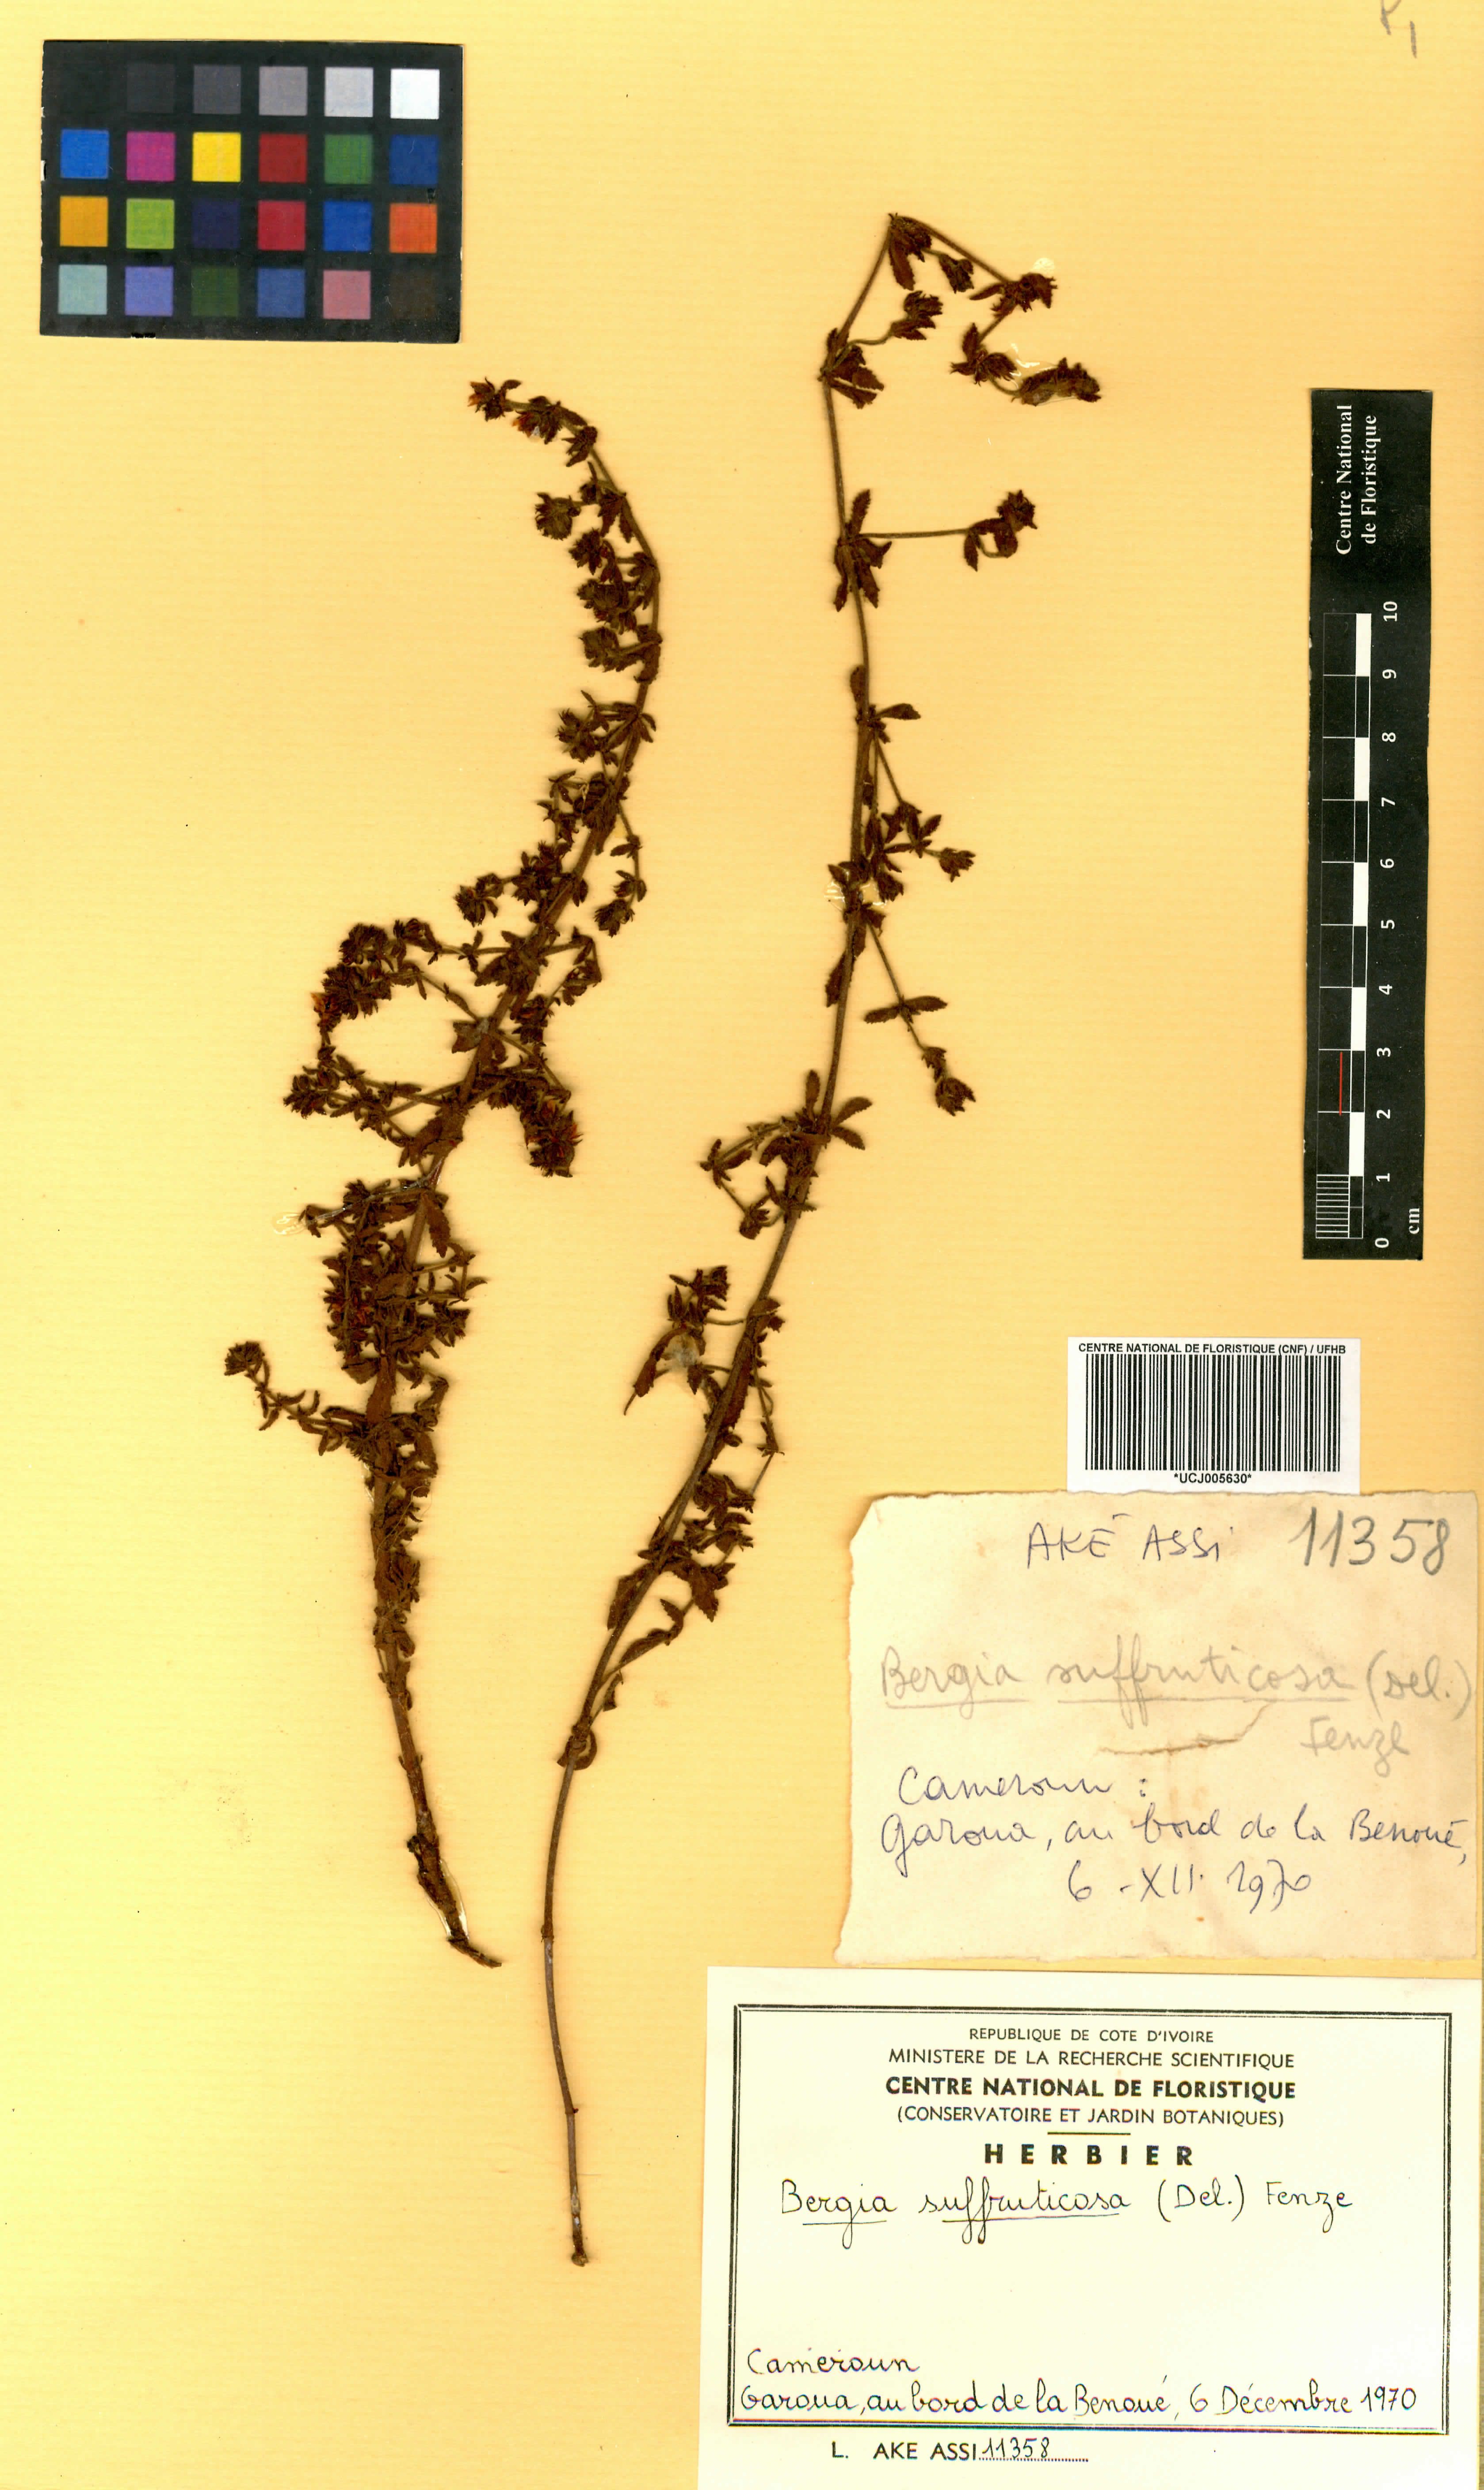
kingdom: Plantae
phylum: Tracheophyta
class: Magnoliopsida
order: Malpighiales
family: Elatinaceae
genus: Bergia
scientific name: Bergia suffruticosa
